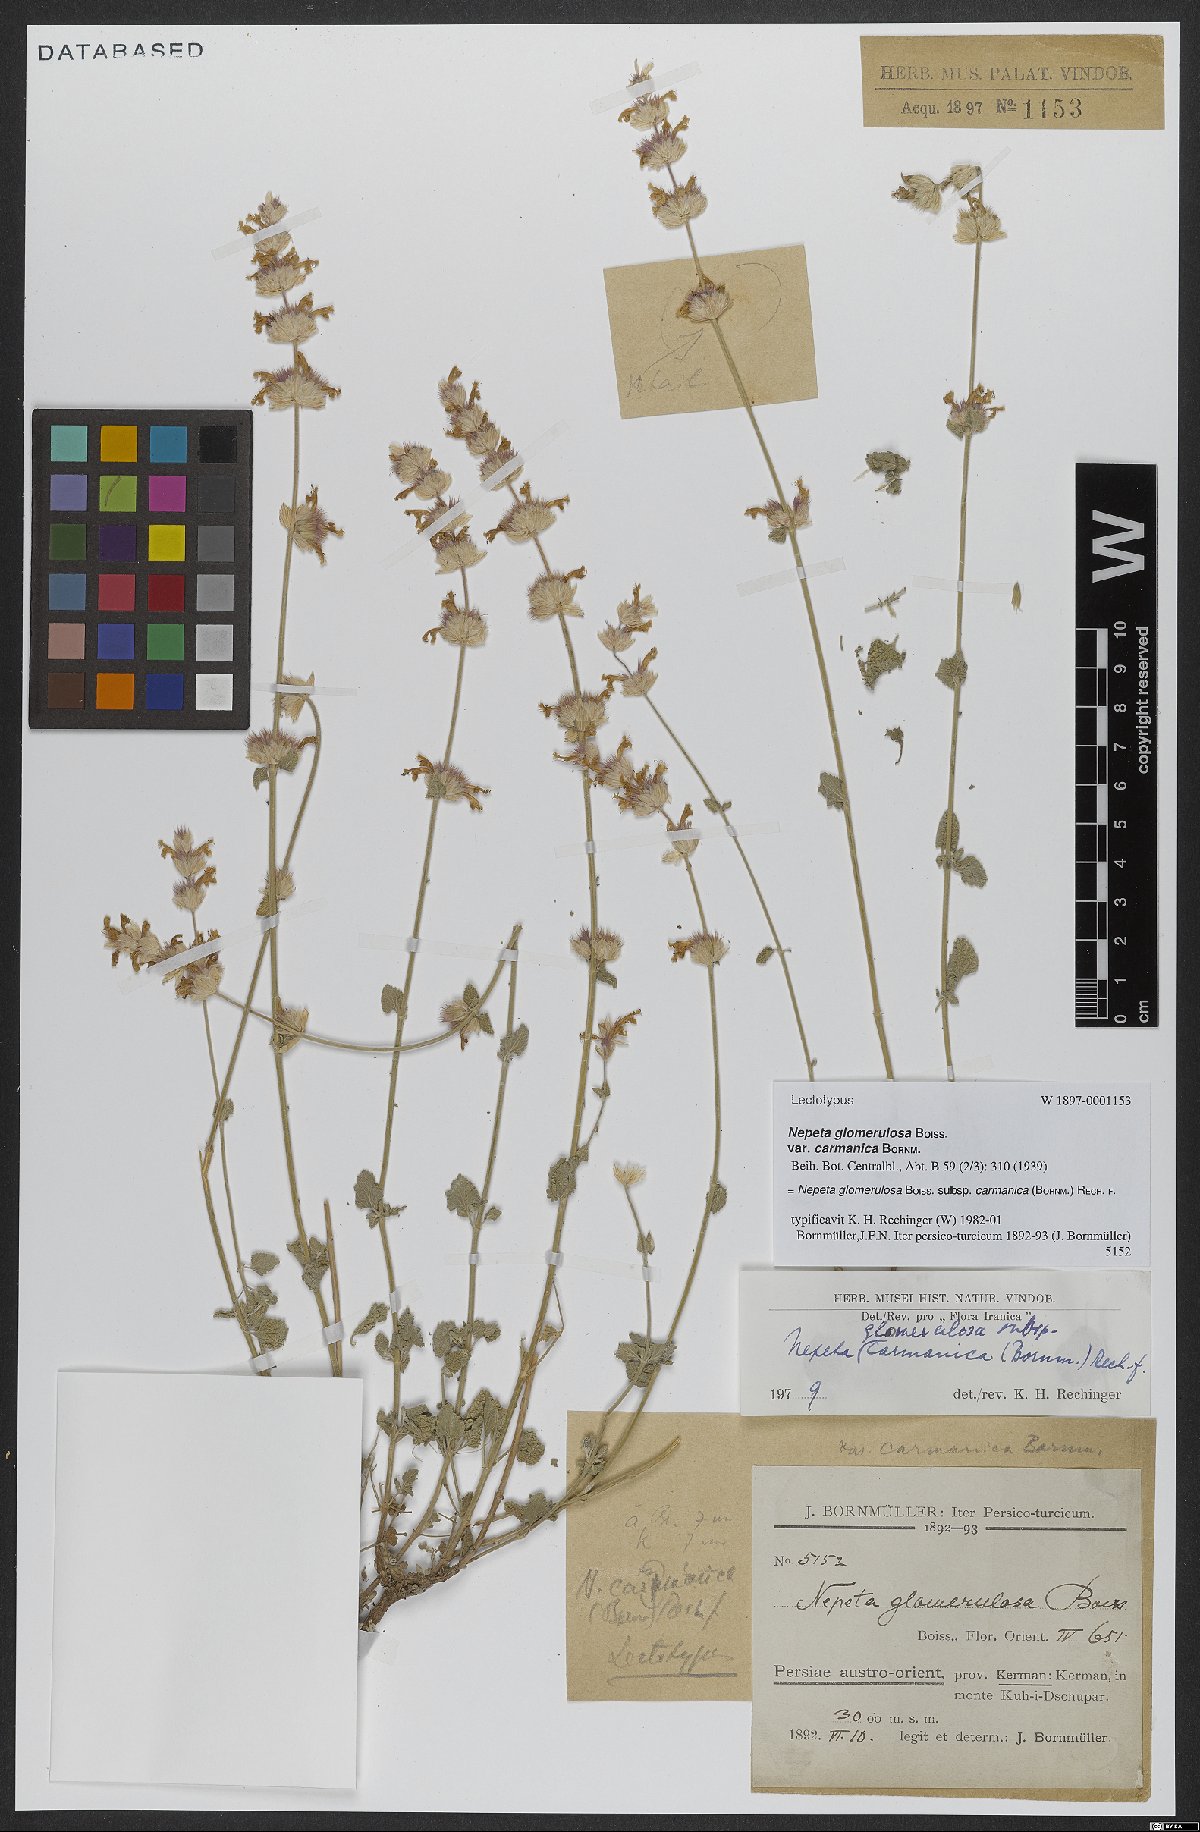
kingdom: Plantae
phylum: Tracheophyta
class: Magnoliopsida
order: Lamiales
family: Lamiaceae
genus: Nepeta
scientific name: Nepeta glomerulosa
